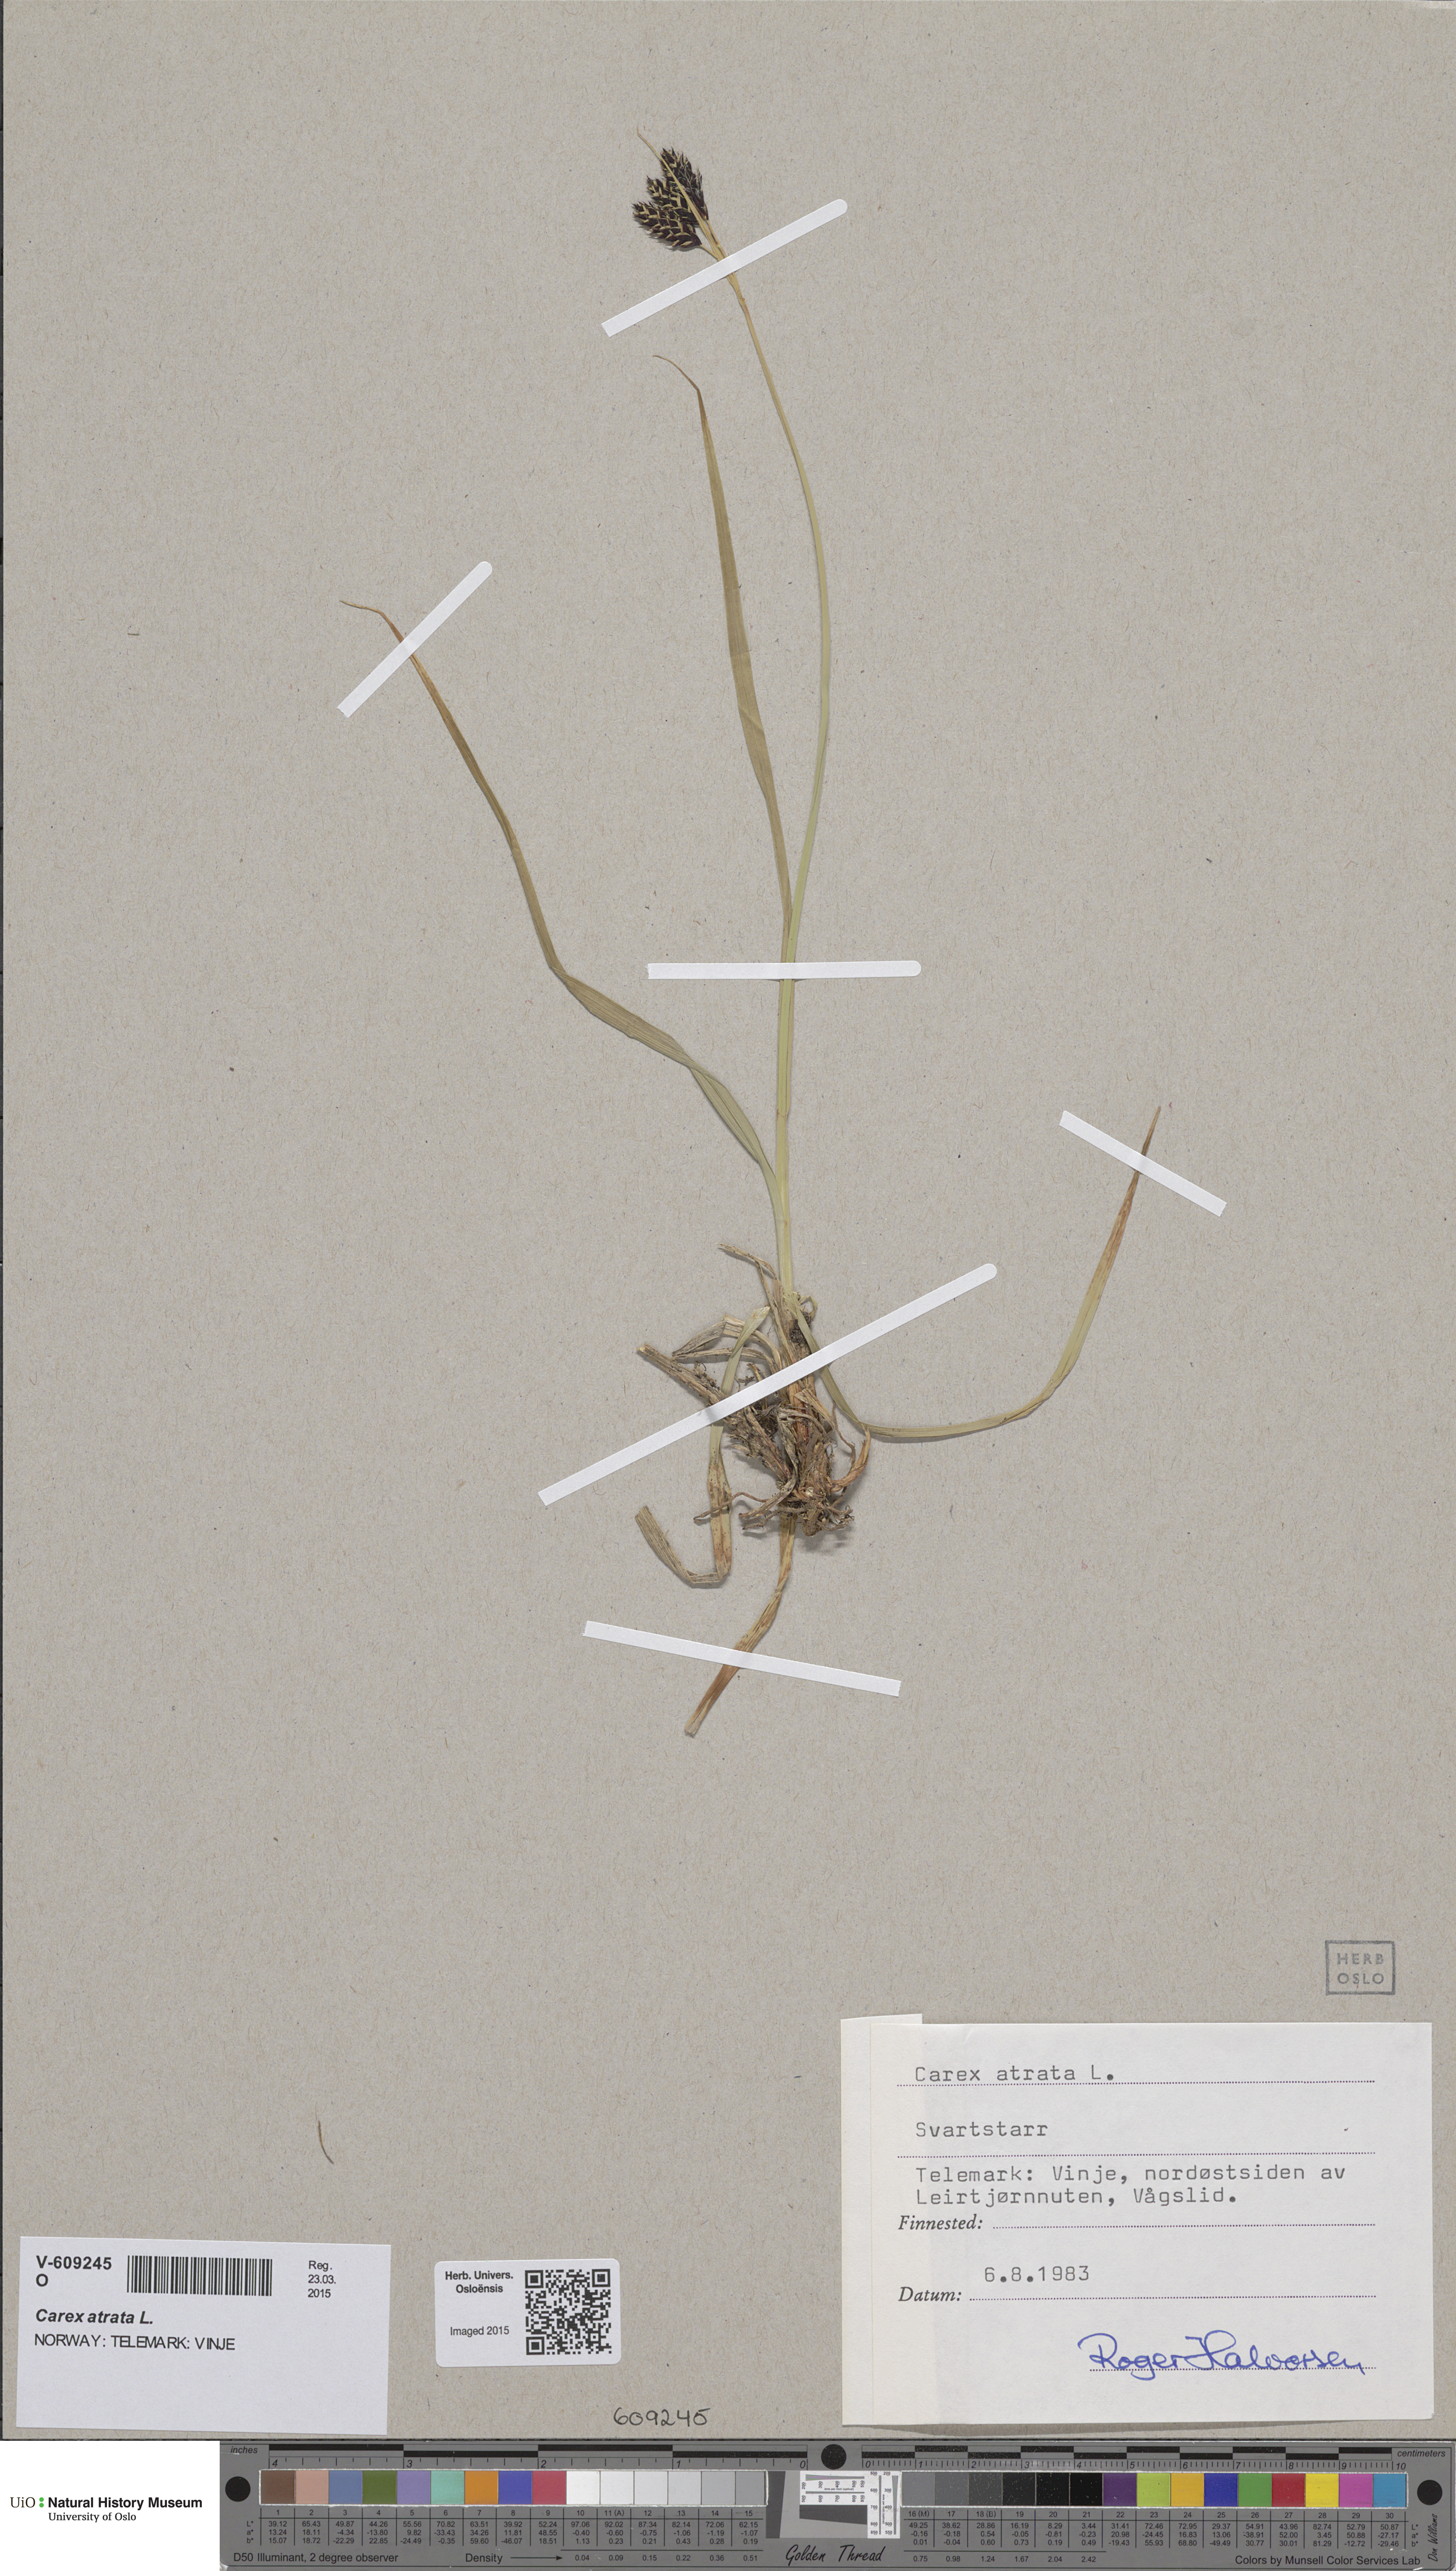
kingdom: Plantae
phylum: Tracheophyta
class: Liliopsida
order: Poales
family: Cyperaceae
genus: Carex
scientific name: Carex atrata
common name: Black alpine sedge
